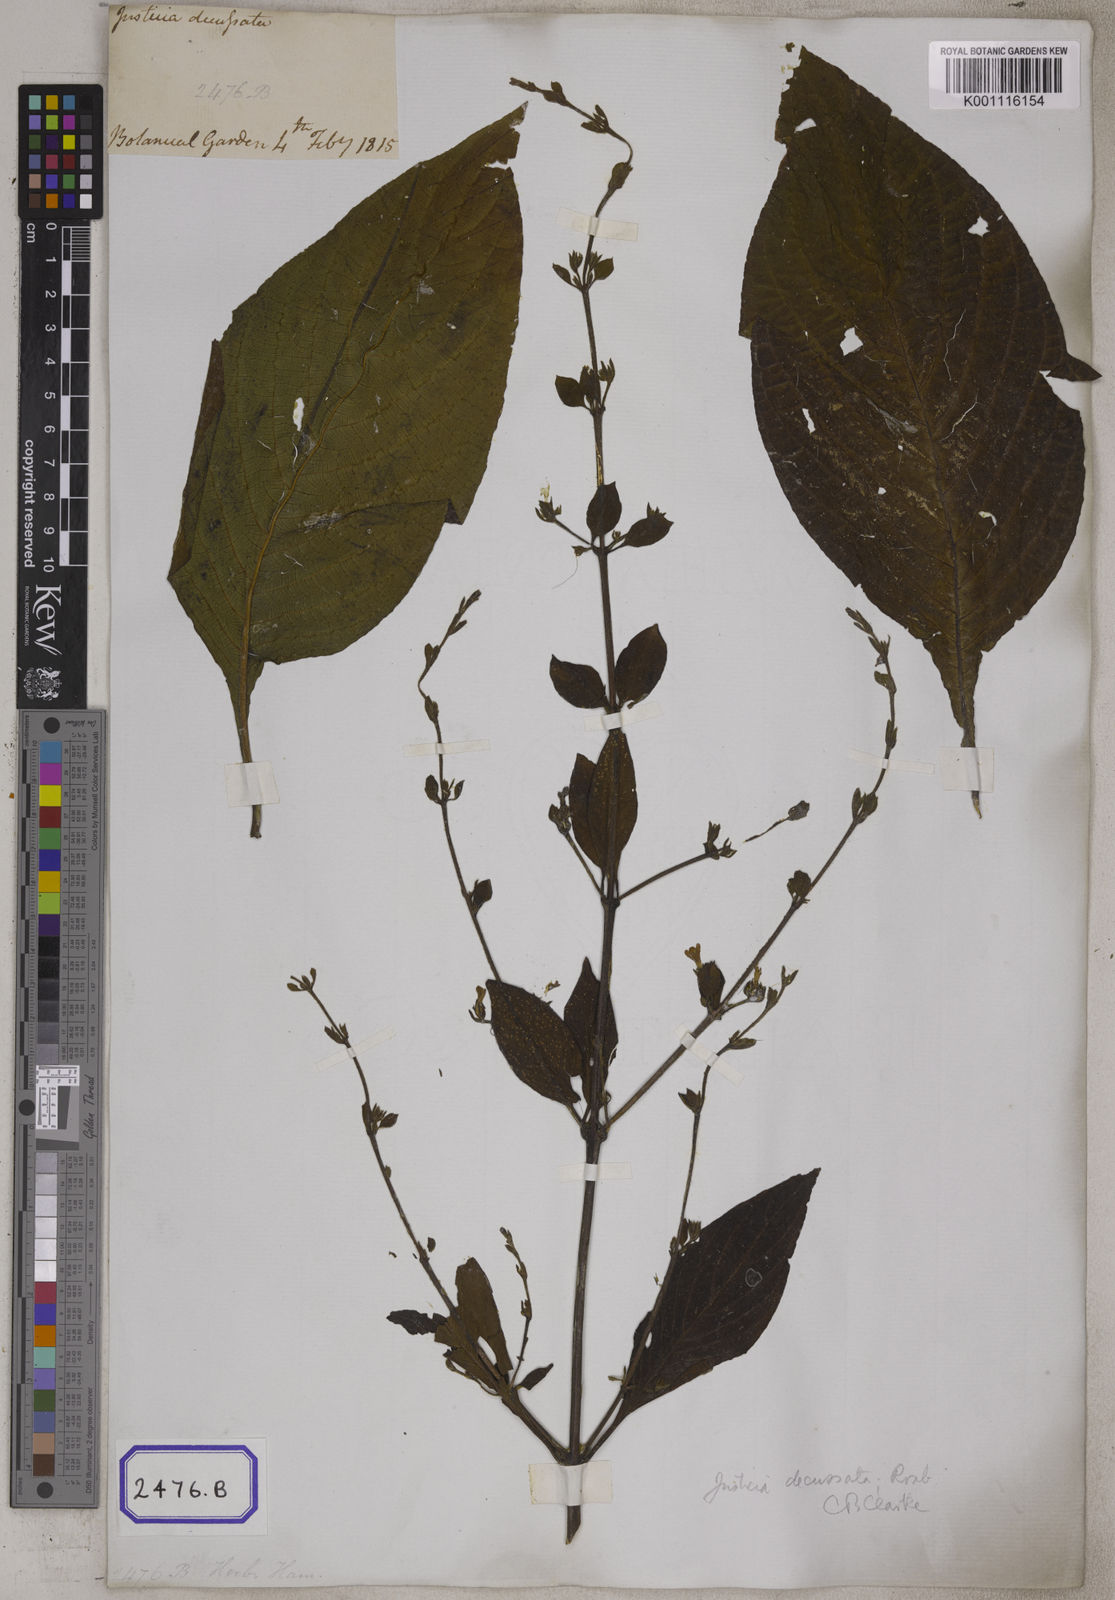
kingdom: Plantae
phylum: Tracheophyta
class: Magnoliopsida
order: Lamiales
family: Acanthaceae
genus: Justicia
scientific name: Justicia decussata
